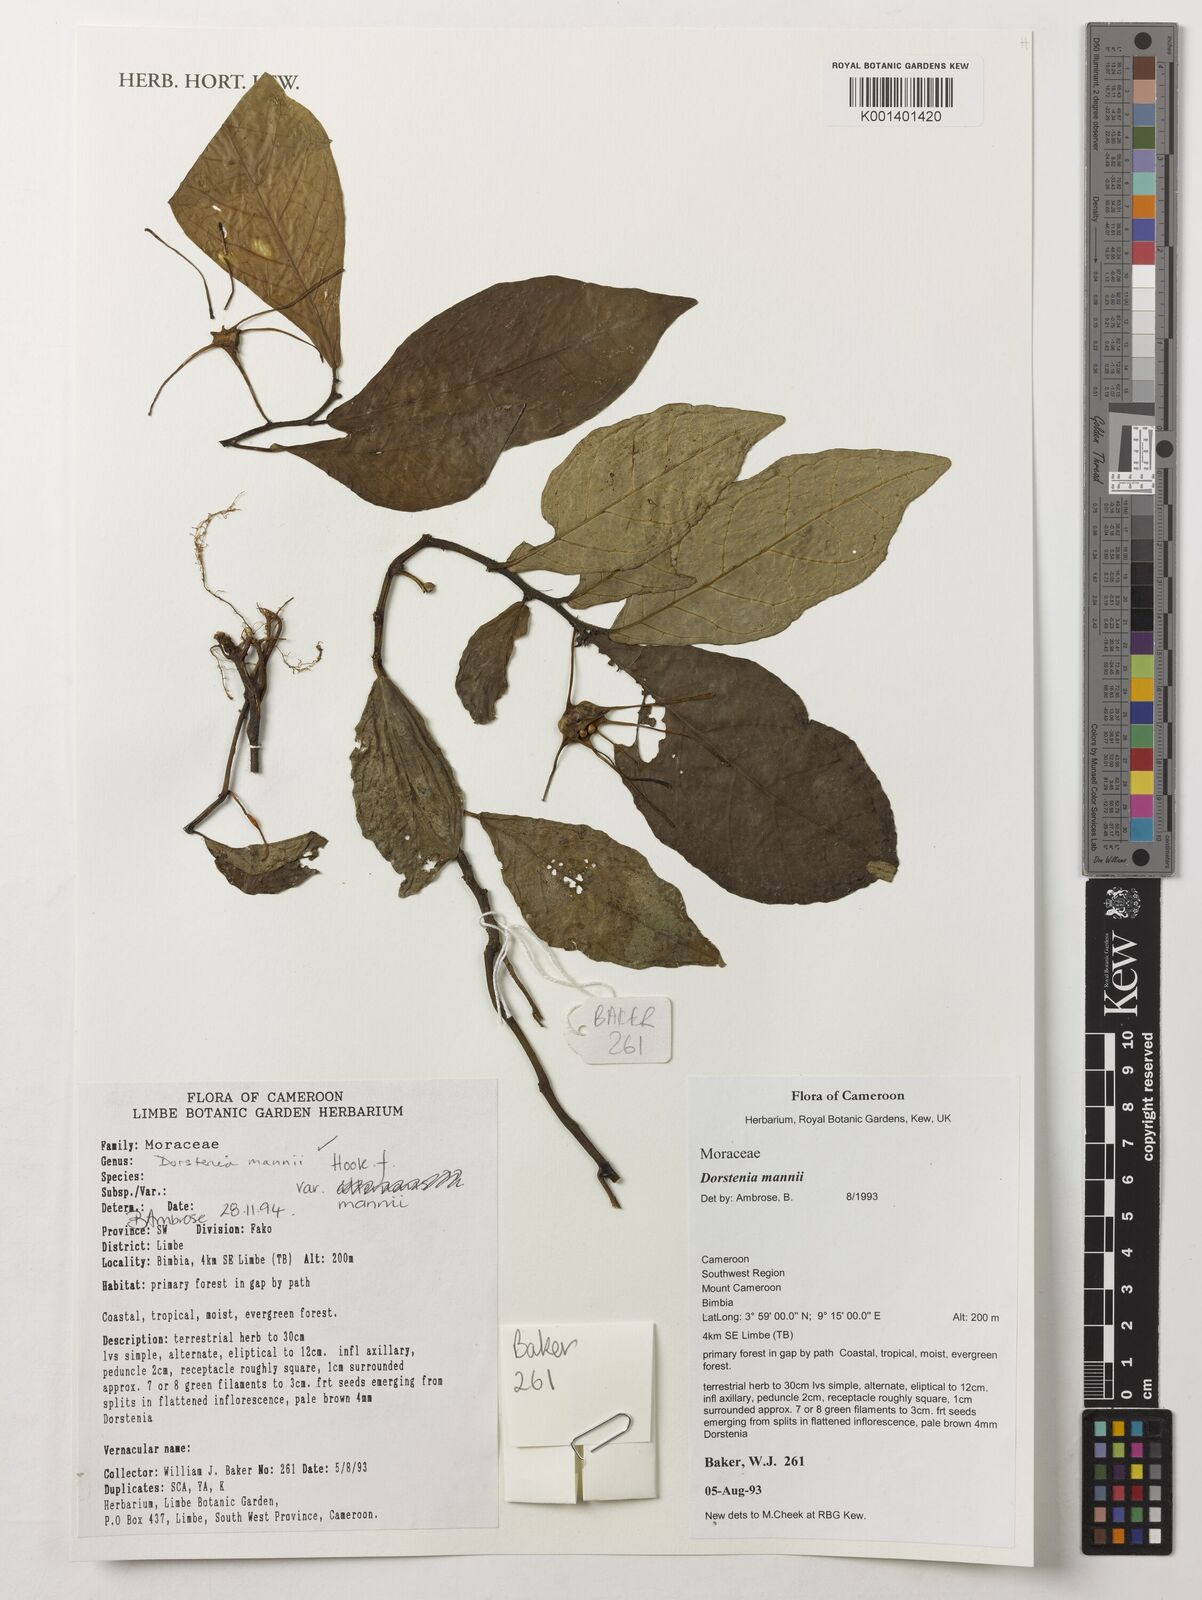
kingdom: Plantae
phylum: Tracheophyta
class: Magnoliopsida
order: Rosales
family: Moraceae
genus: Dorstenia
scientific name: Dorstenia mannii
